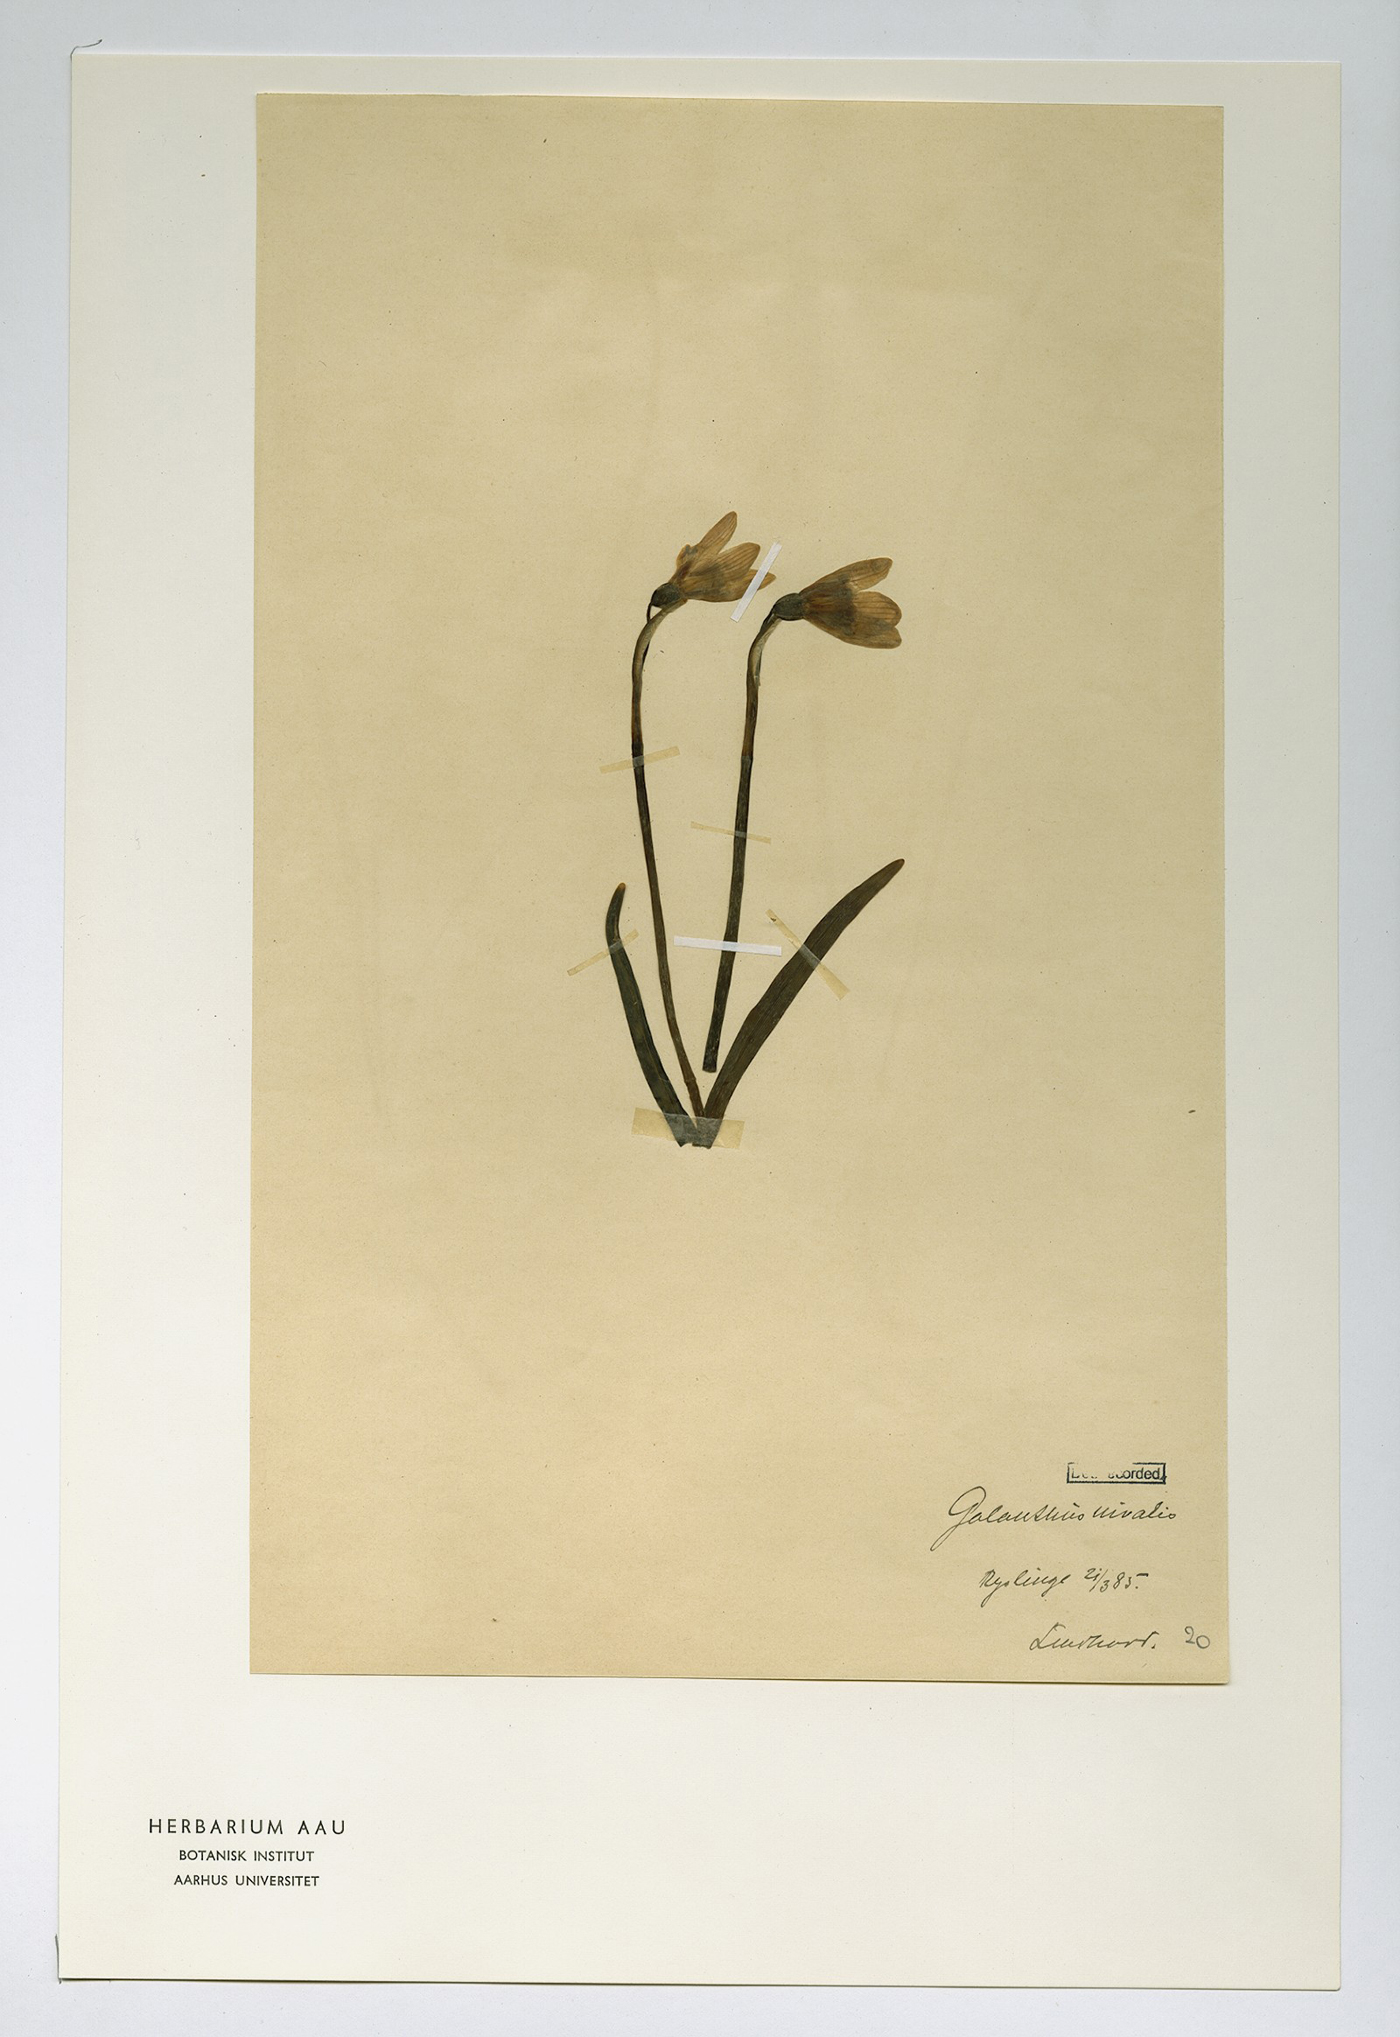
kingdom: Plantae
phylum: Tracheophyta
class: Liliopsida
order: Asparagales
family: Amaryllidaceae
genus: Galanthus
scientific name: Galanthus nivalis
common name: Snowdrop
